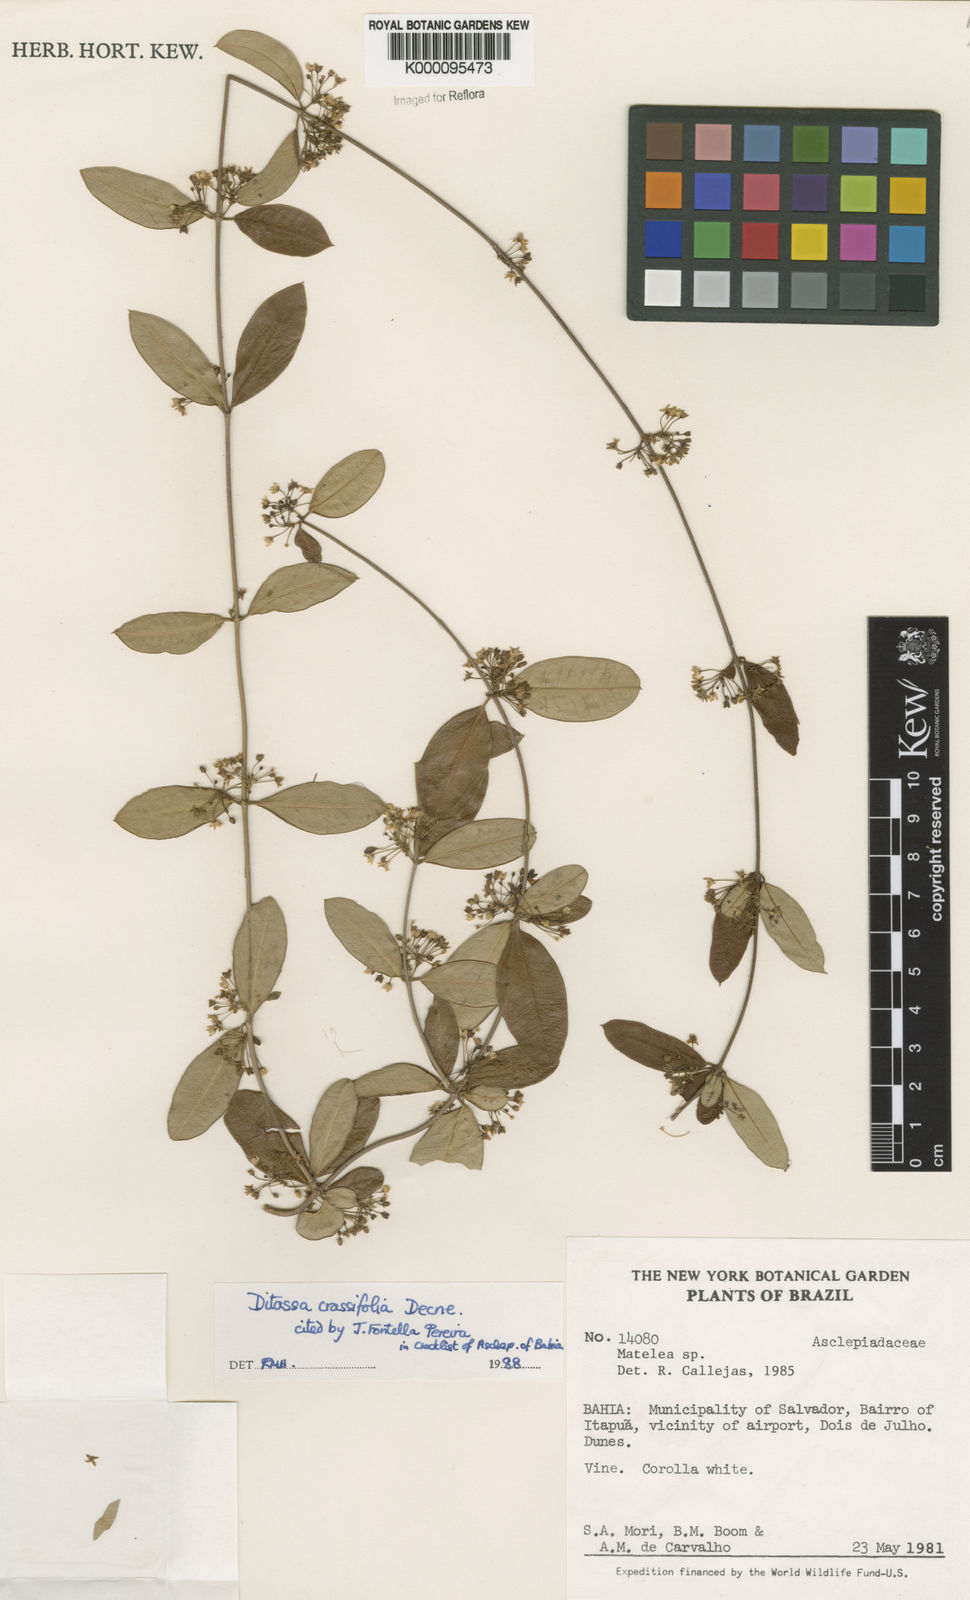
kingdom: Plantae
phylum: Tracheophyta
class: Magnoliopsida
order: Gentianales
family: Apocynaceae
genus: Ditassa
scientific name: Ditassa crassifolia
